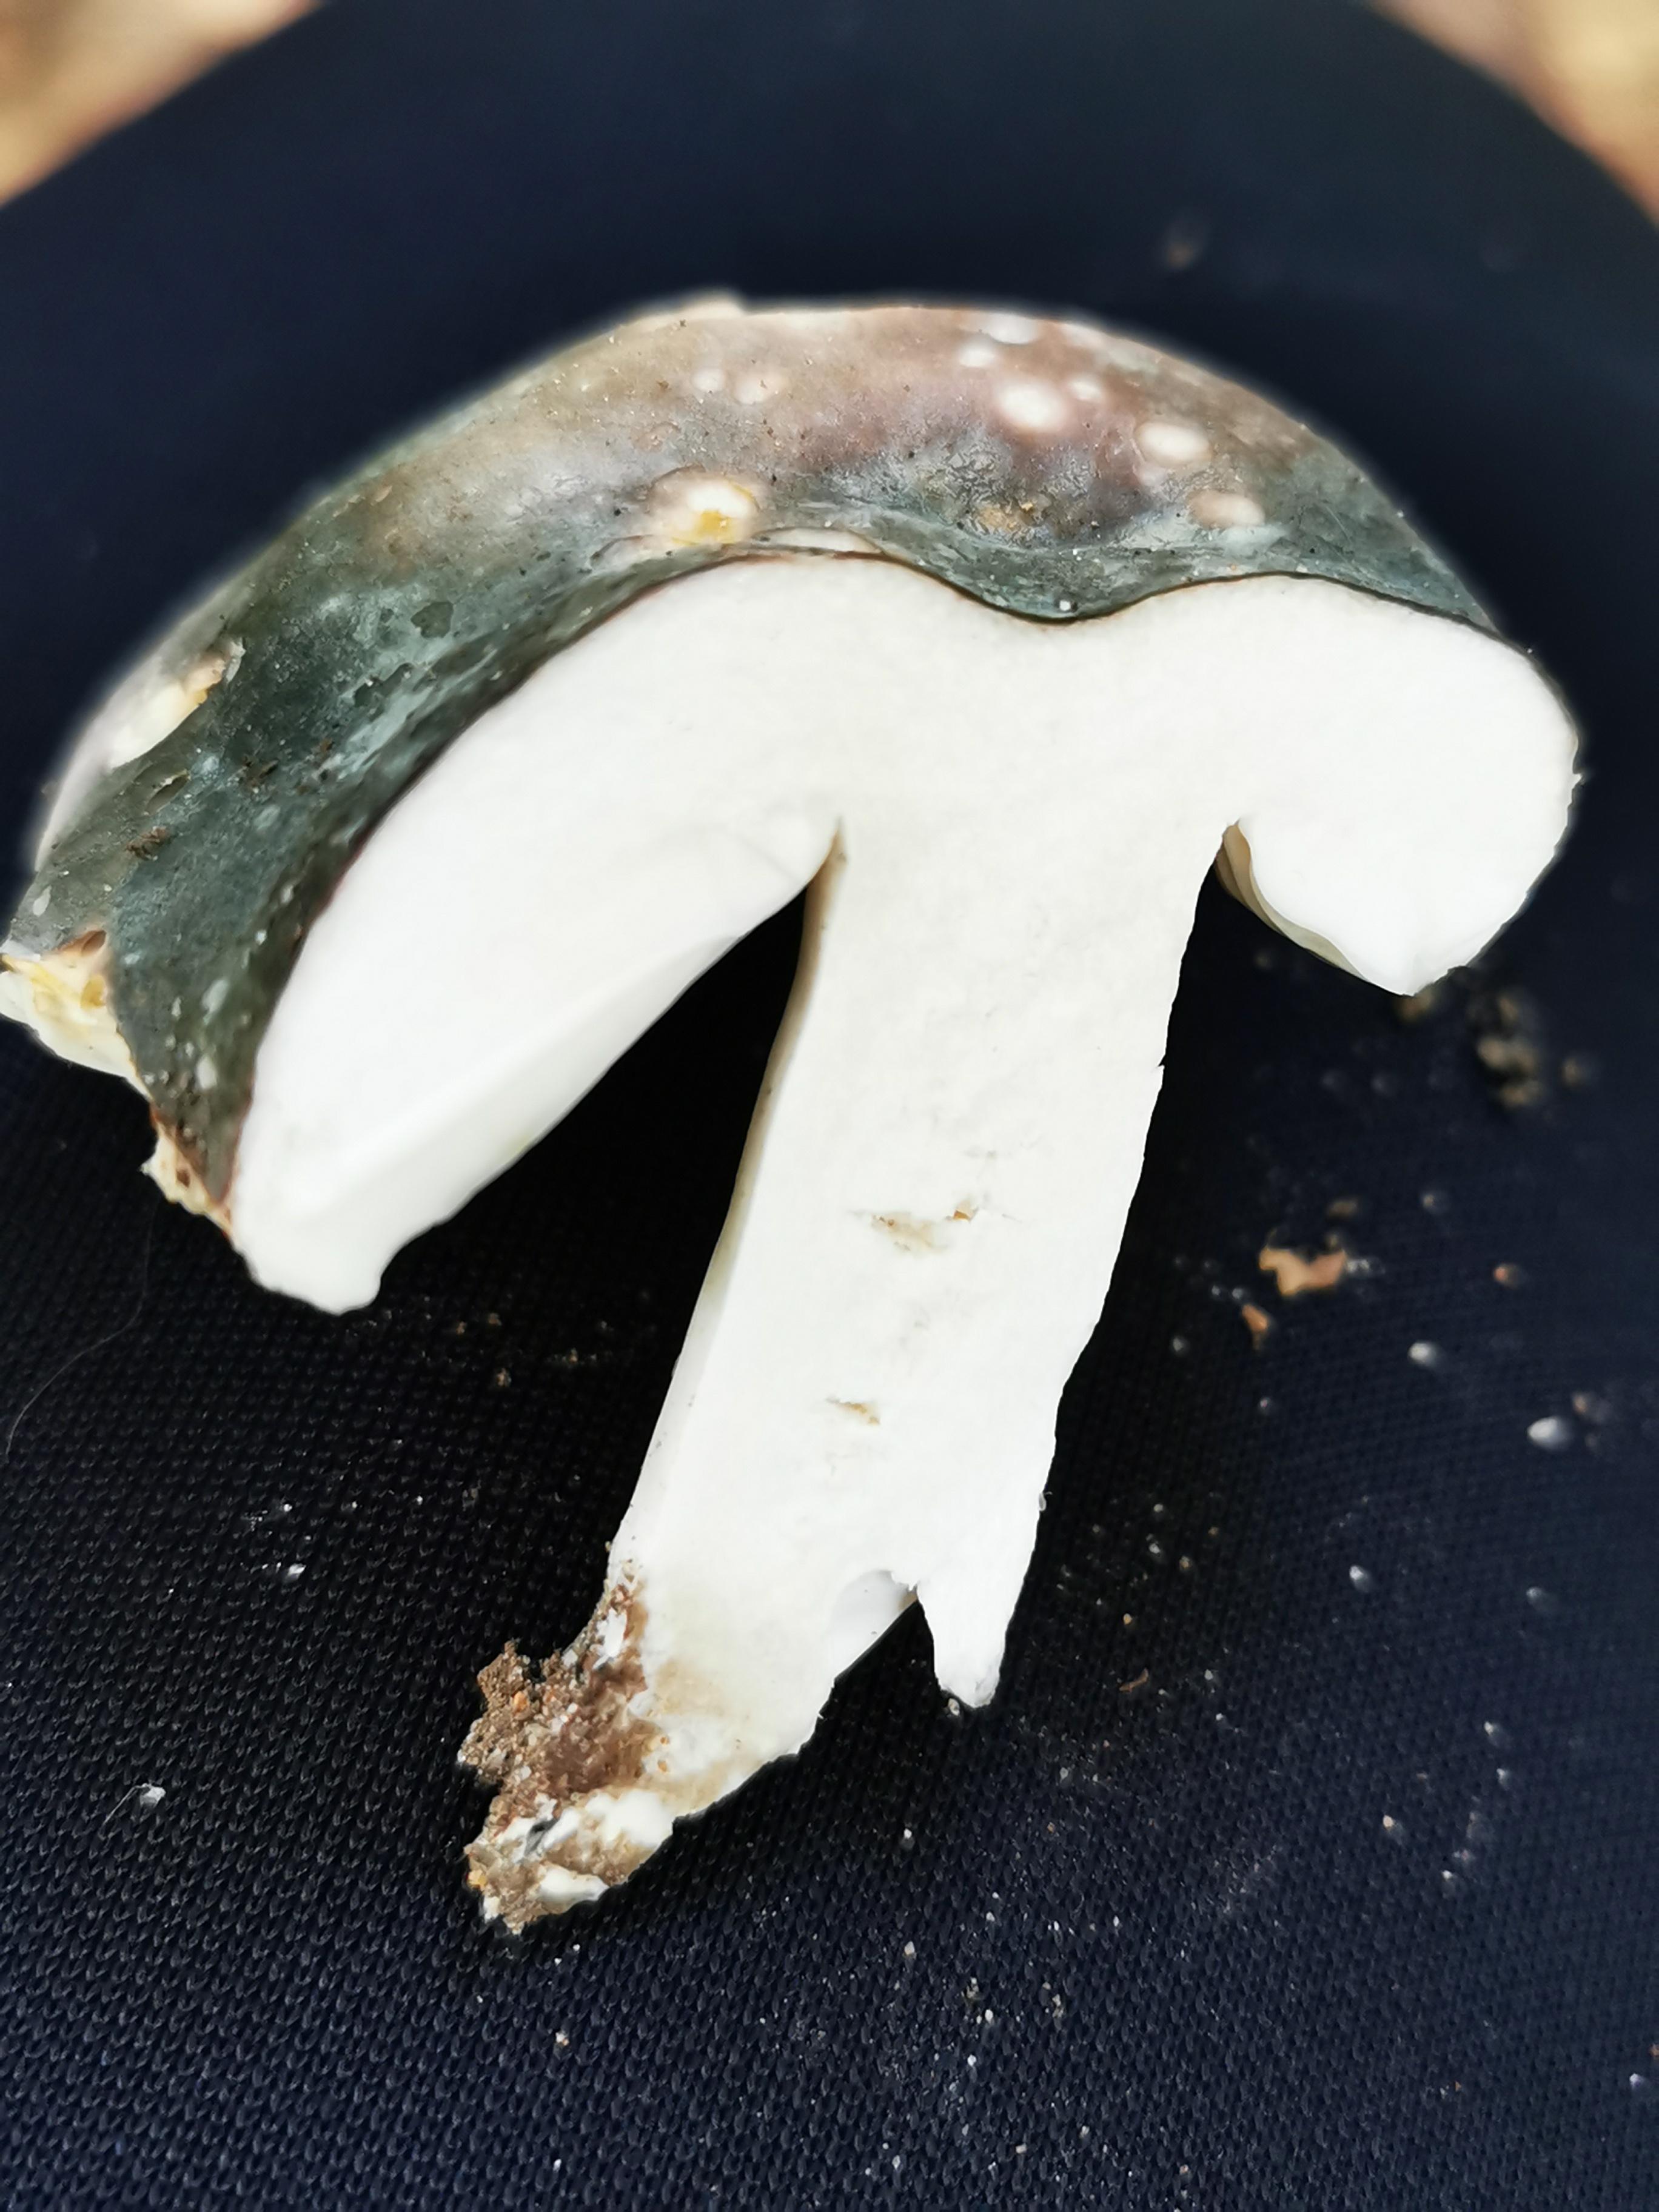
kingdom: Fungi
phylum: Basidiomycota
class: Agaricomycetes
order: Russulales
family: Russulaceae
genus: Russula
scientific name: Russula
